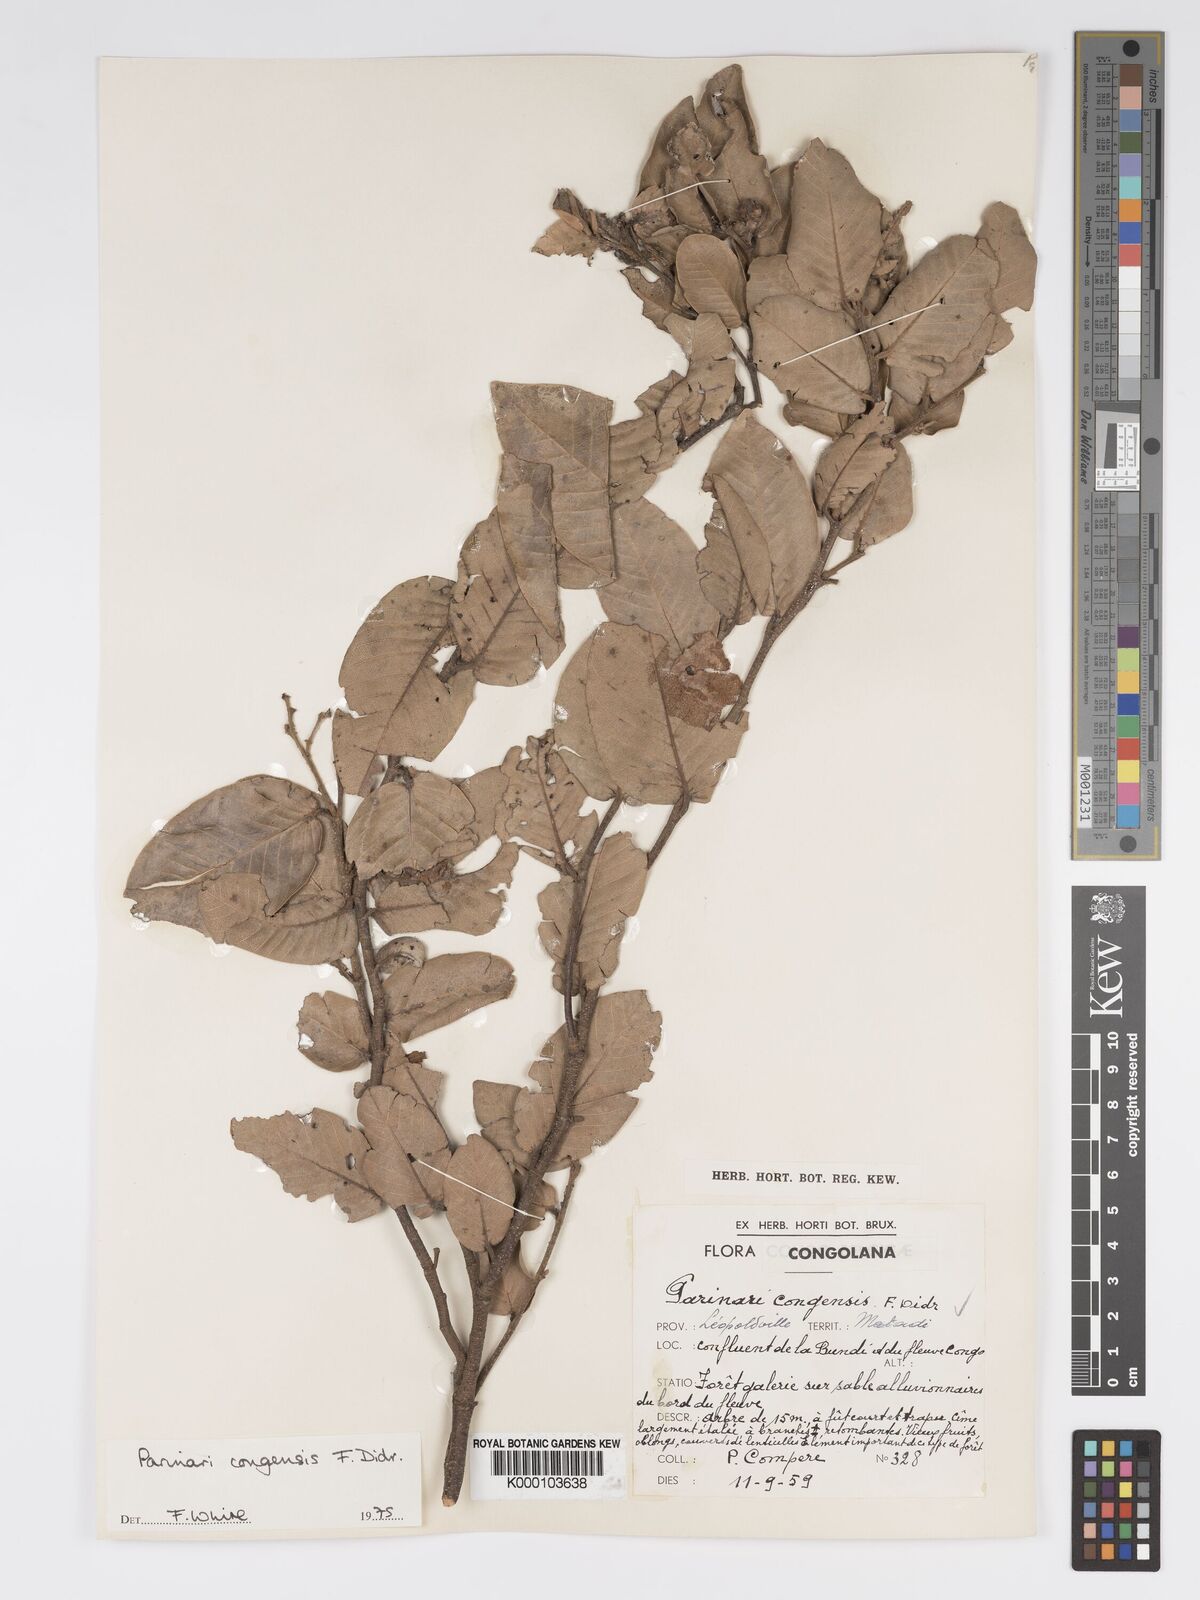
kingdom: Plantae
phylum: Tracheophyta
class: Magnoliopsida
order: Malpighiales
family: Chrysobalanaceae
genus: Parinari
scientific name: Parinari congensis
